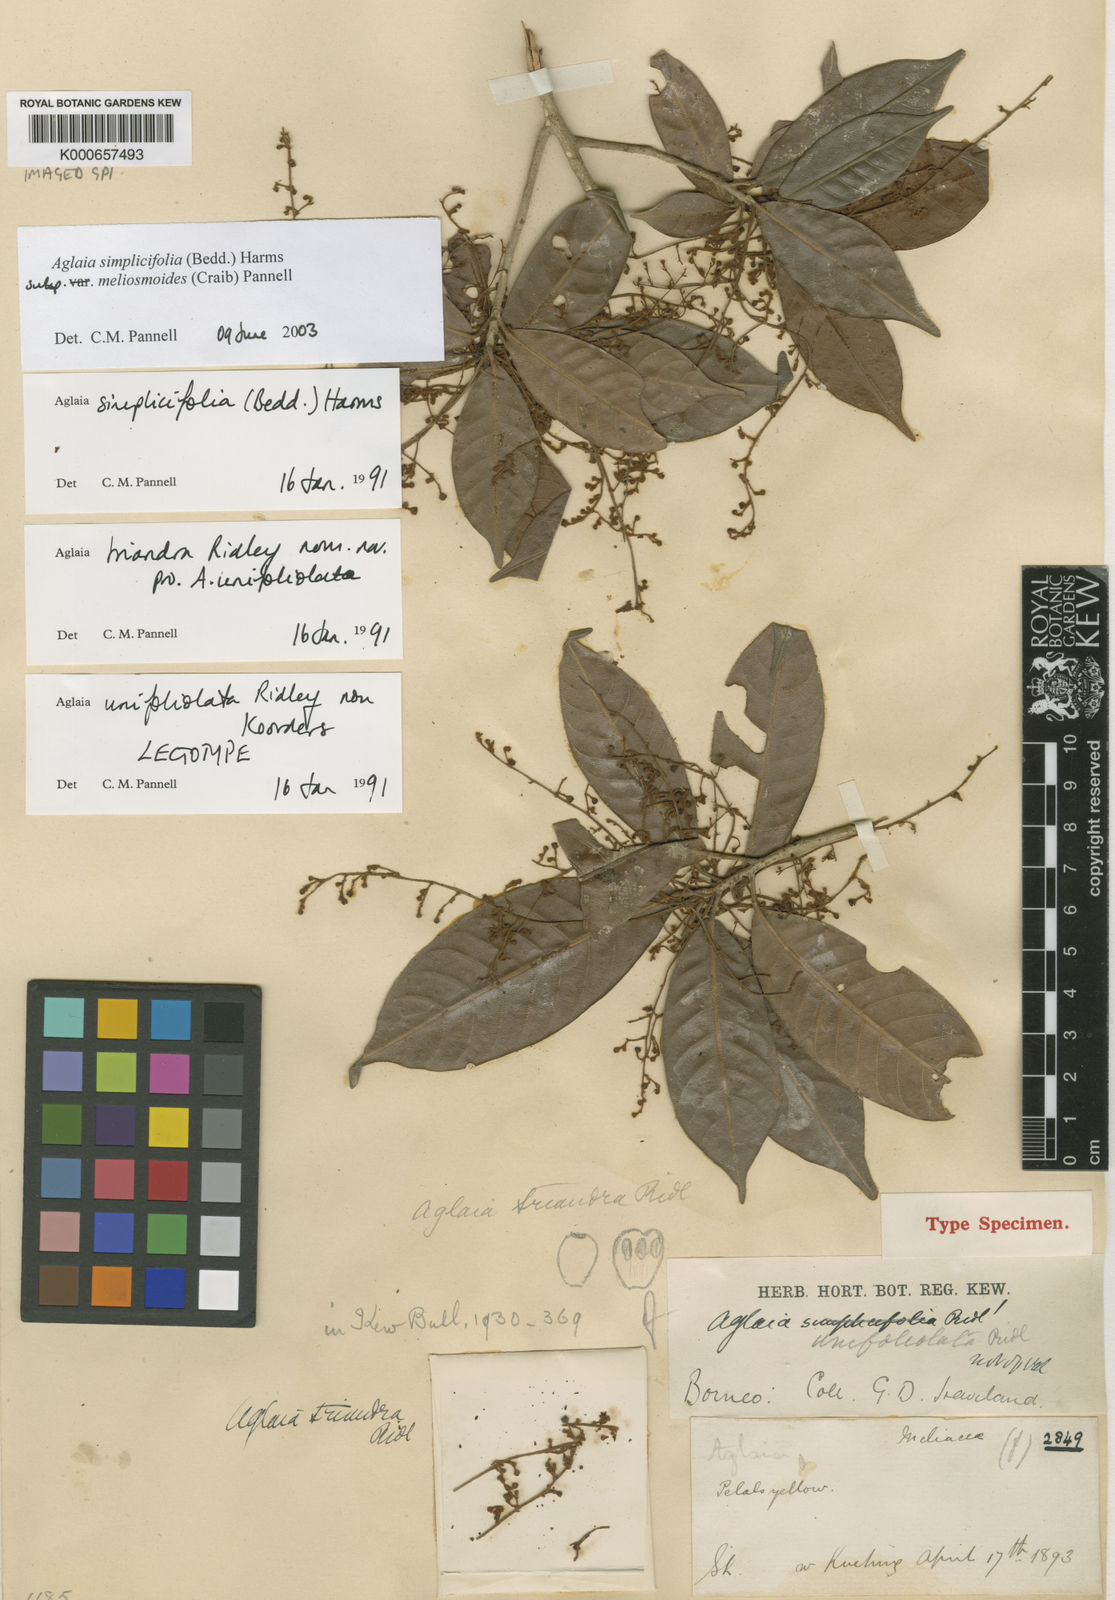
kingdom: Plantae
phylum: Tracheophyta
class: Magnoliopsida
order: Sapindales
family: Meliaceae
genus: Aglaia
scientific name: Aglaia simplicifolia
